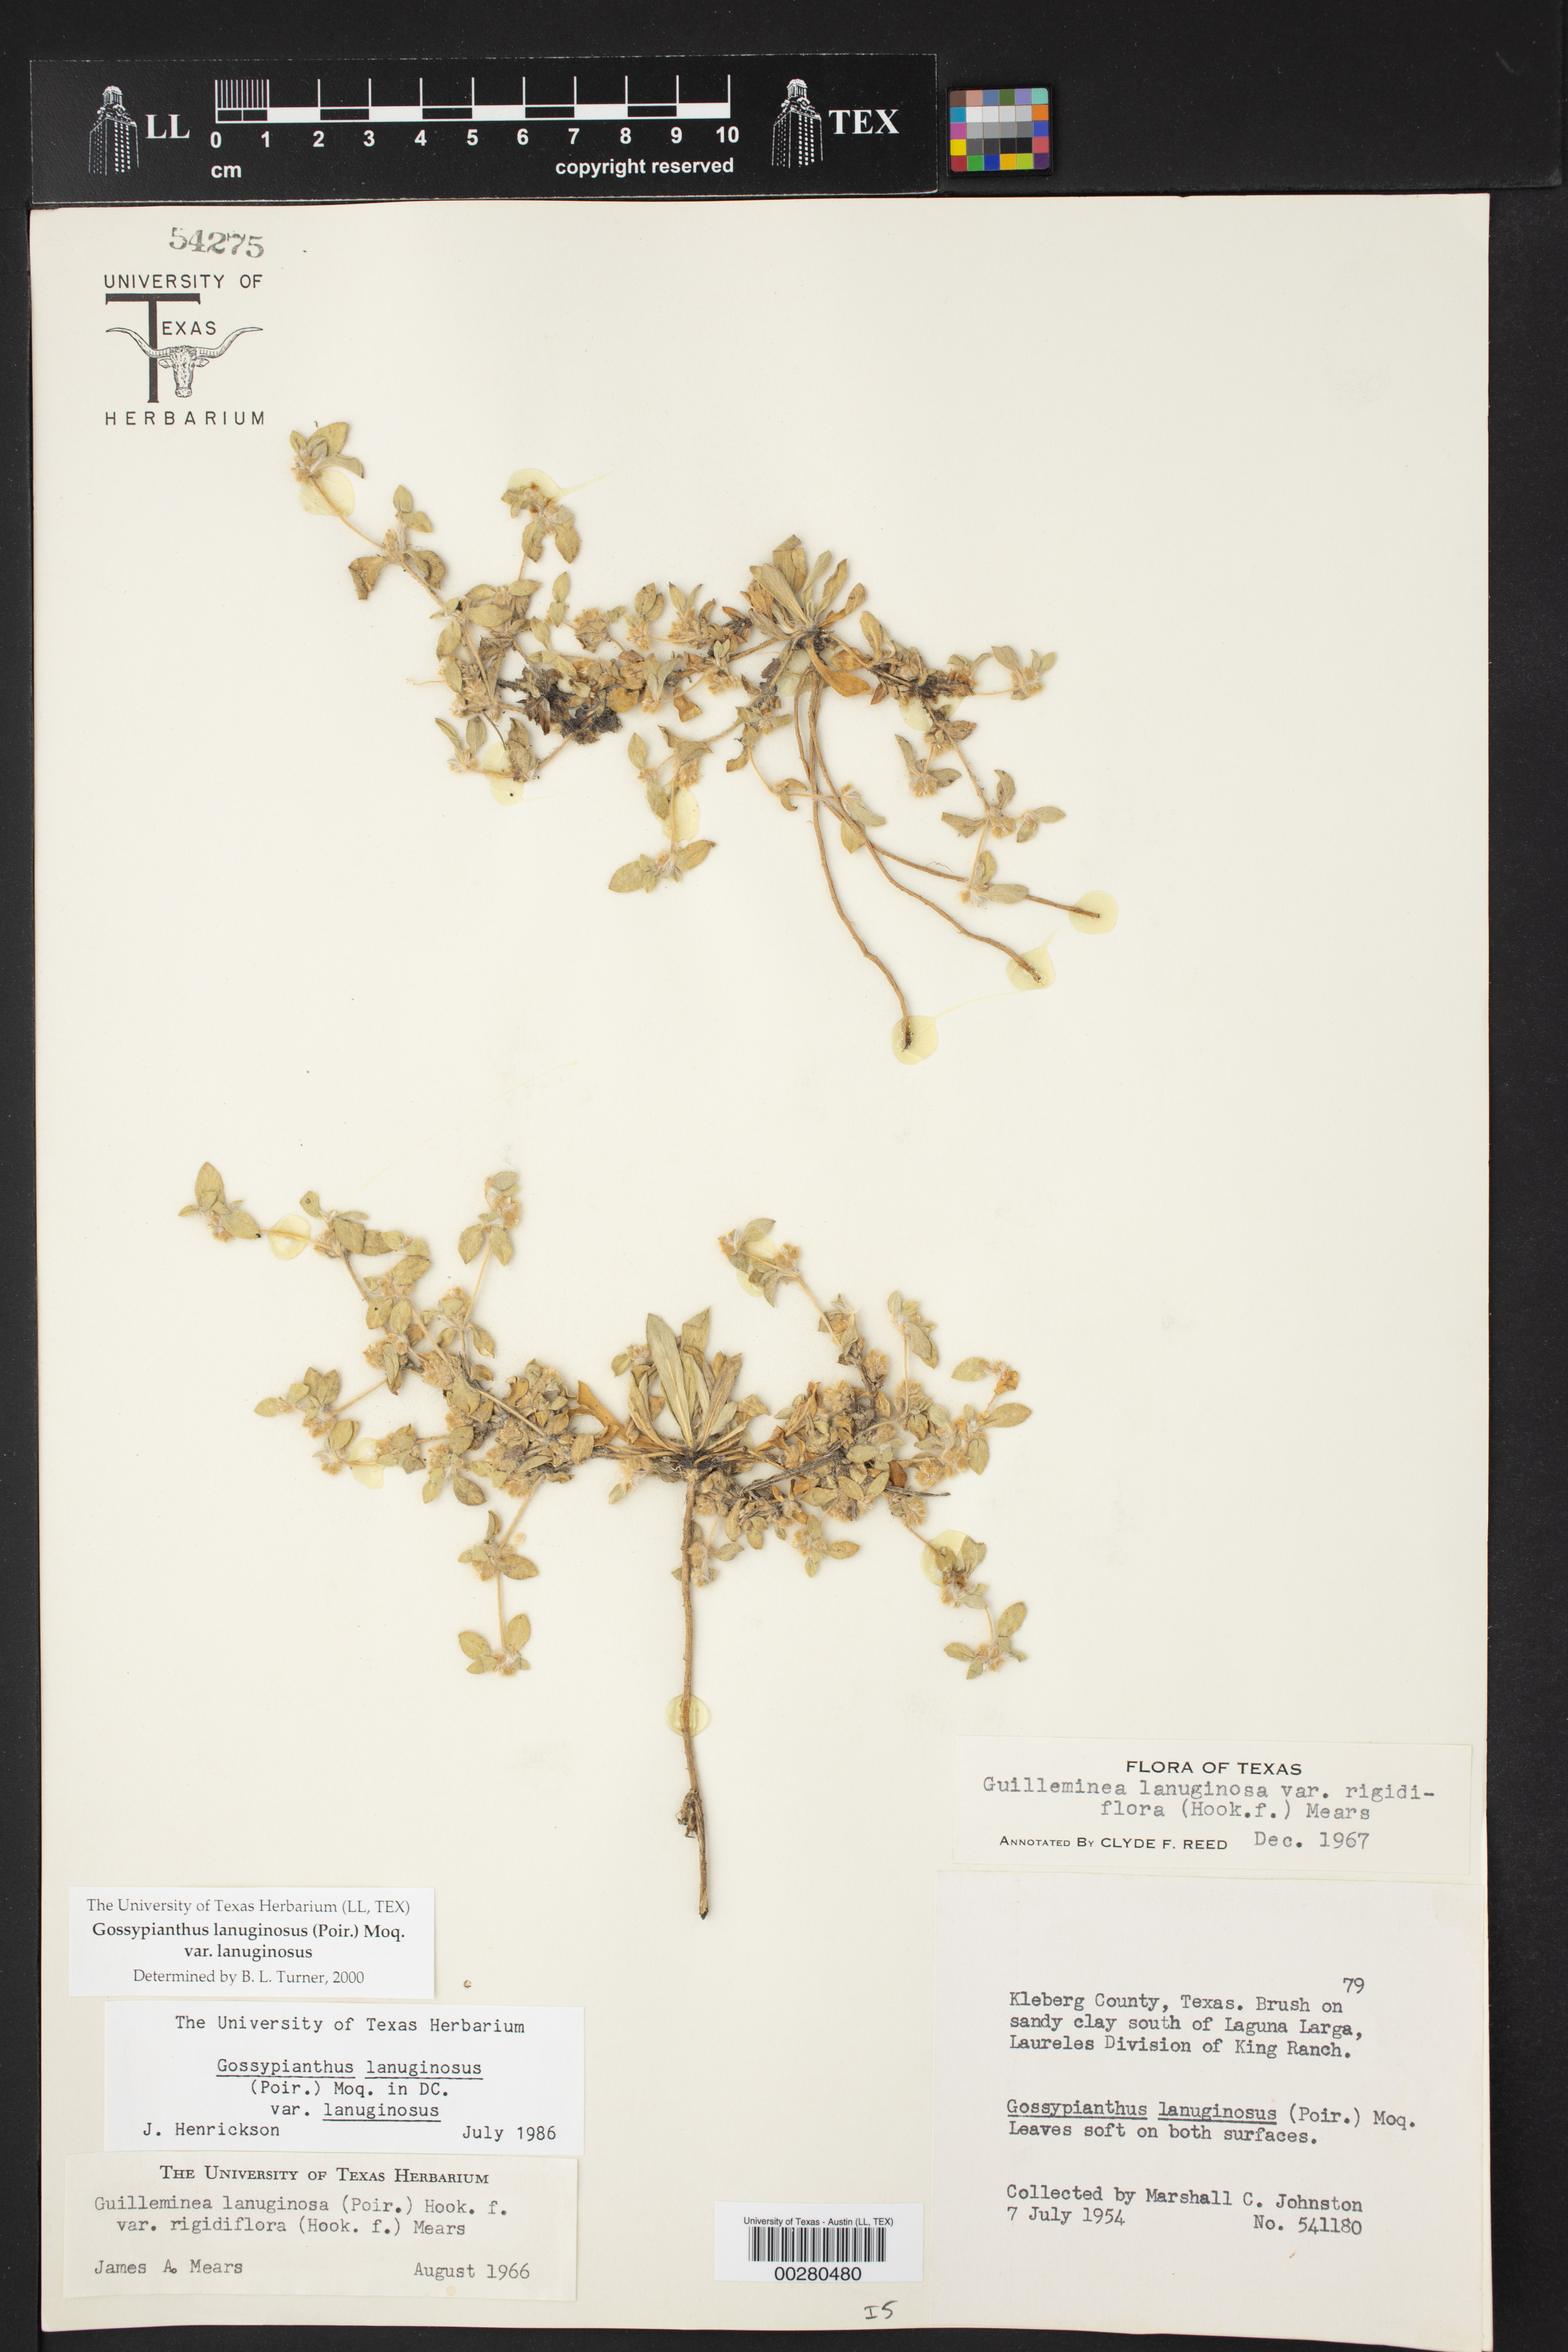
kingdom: Plantae
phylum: Tracheophyta
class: Magnoliopsida
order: Caryophyllales
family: Amaranthaceae
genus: Gomphrena
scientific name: Gomphrena lanuparonychioides
